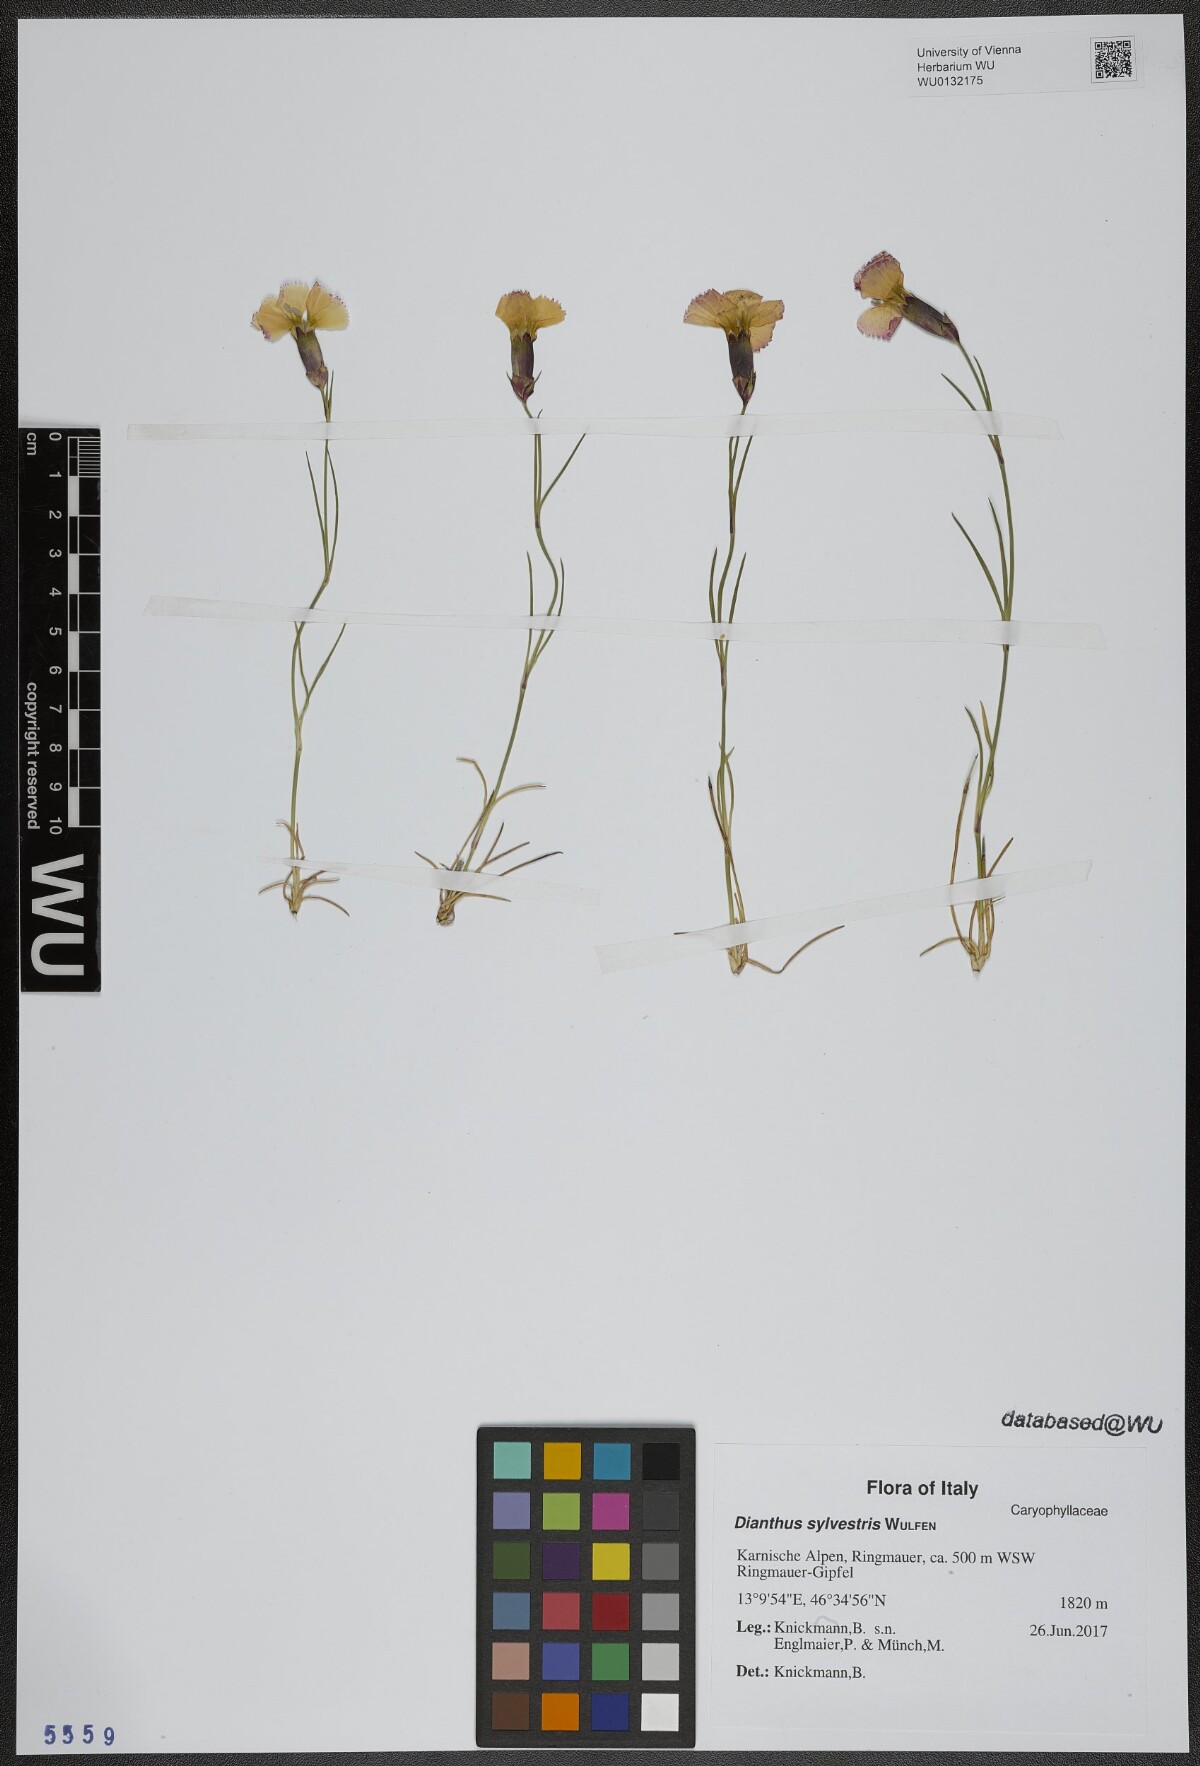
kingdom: Plantae
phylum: Tracheophyta
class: Magnoliopsida
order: Caryophyllales
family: Caryophyllaceae
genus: Dianthus
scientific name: Dianthus sylvestris
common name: Wood pink
